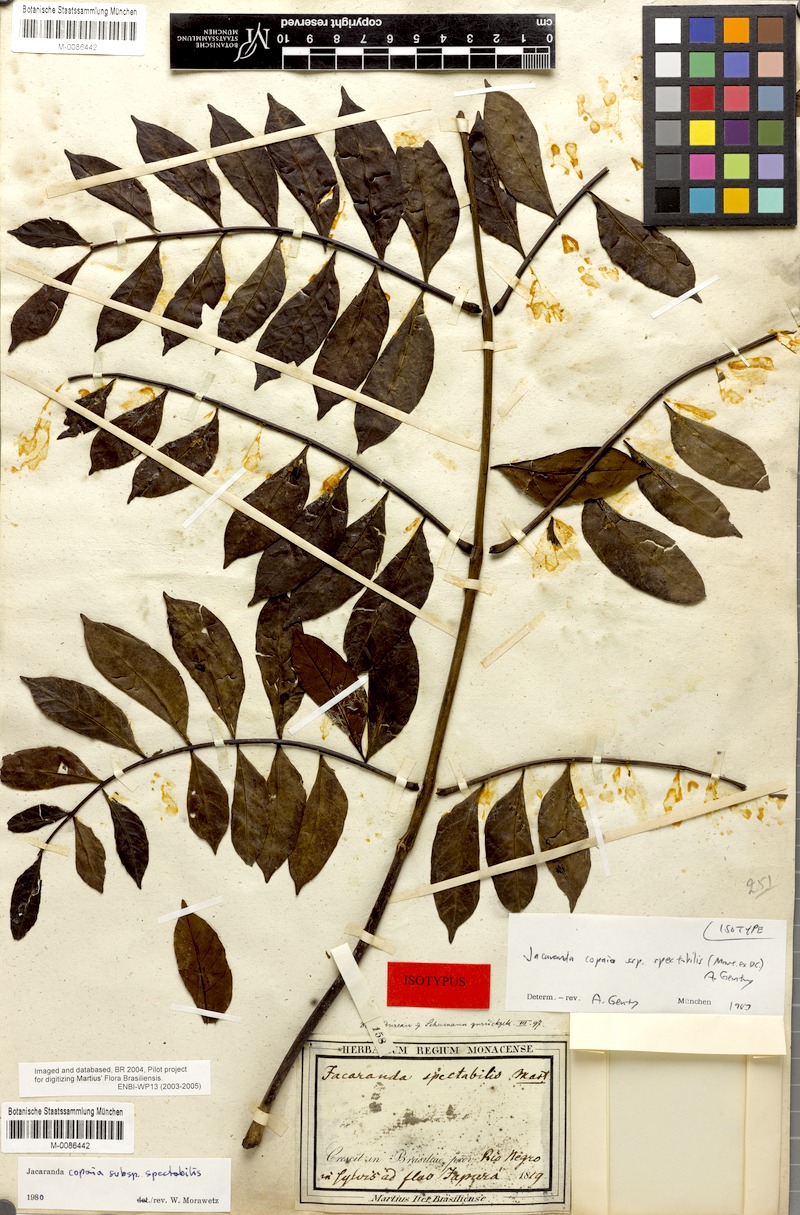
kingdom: Plantae
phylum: Tracheophyta
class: Magnoliopsida
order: Lamiales
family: Bignoniaceae
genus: Jacaranda
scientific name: Jacaranda copaia
